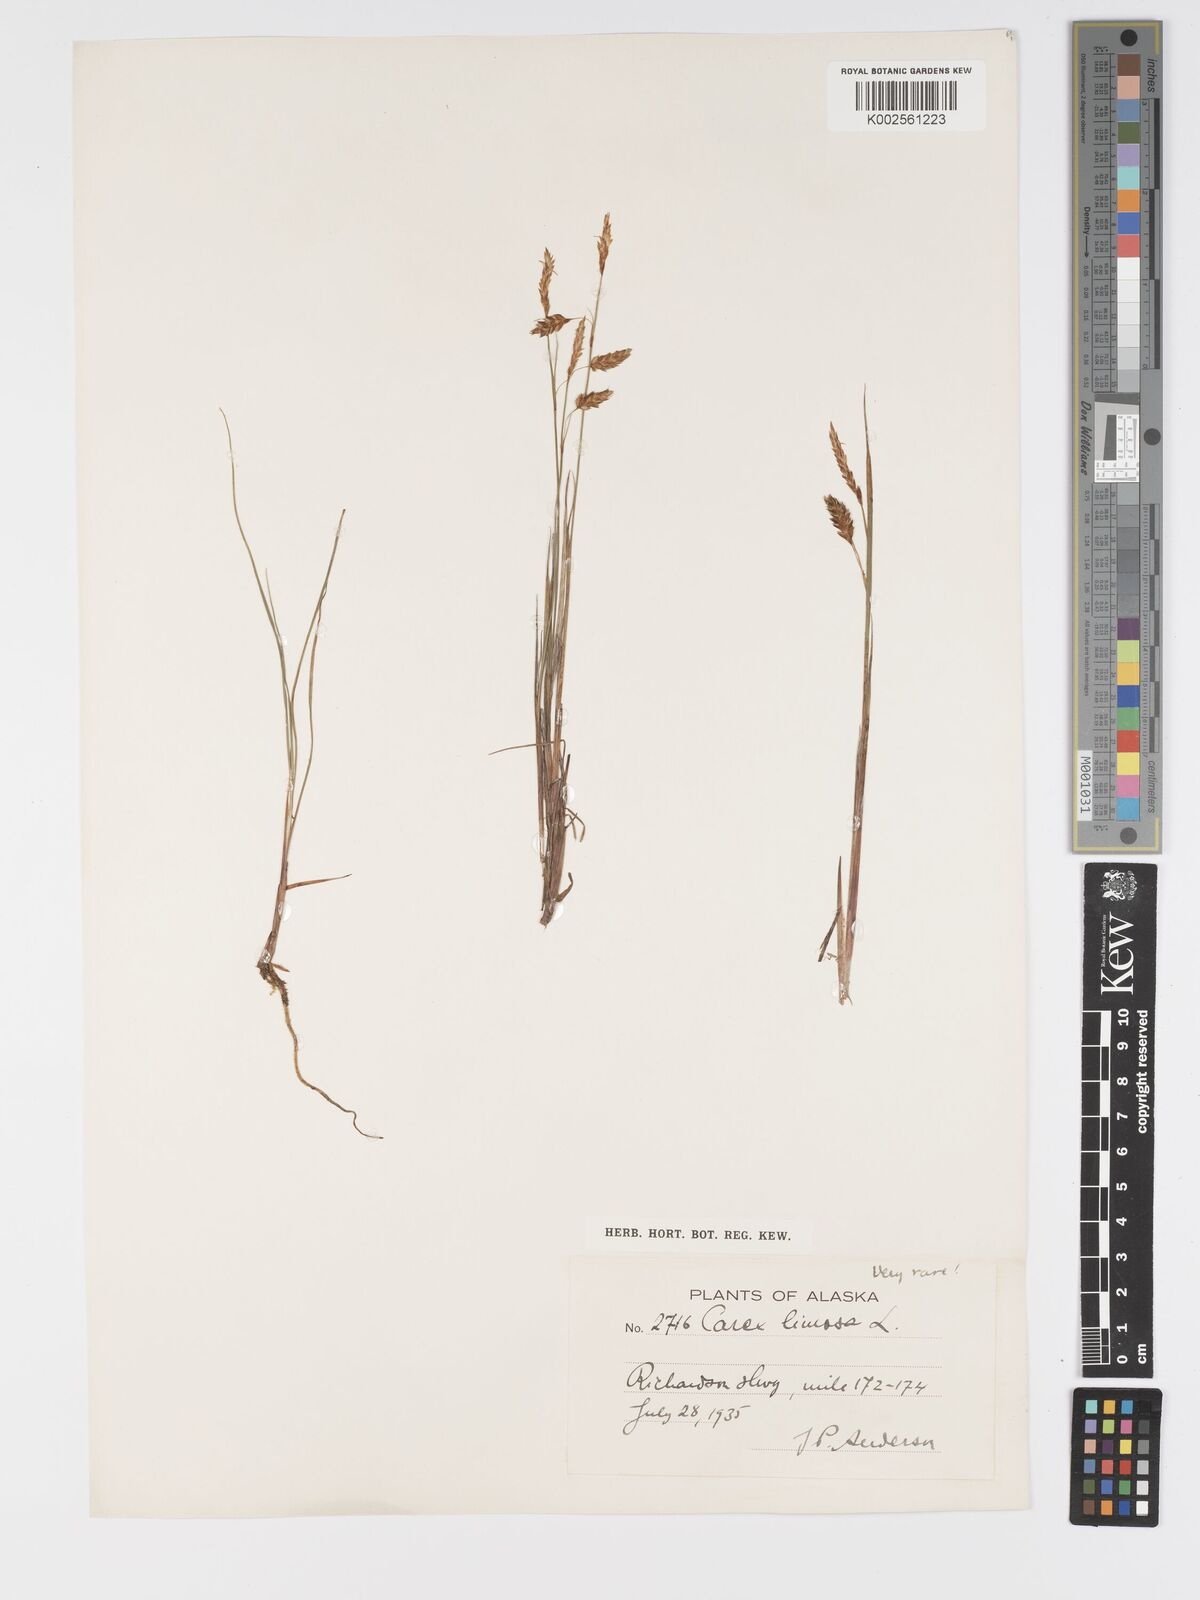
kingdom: Plantae
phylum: Tracheophyta
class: Liliopsida
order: Poales
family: Cyperaceae
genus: Carex
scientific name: Carex limosa
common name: Bog sedge
